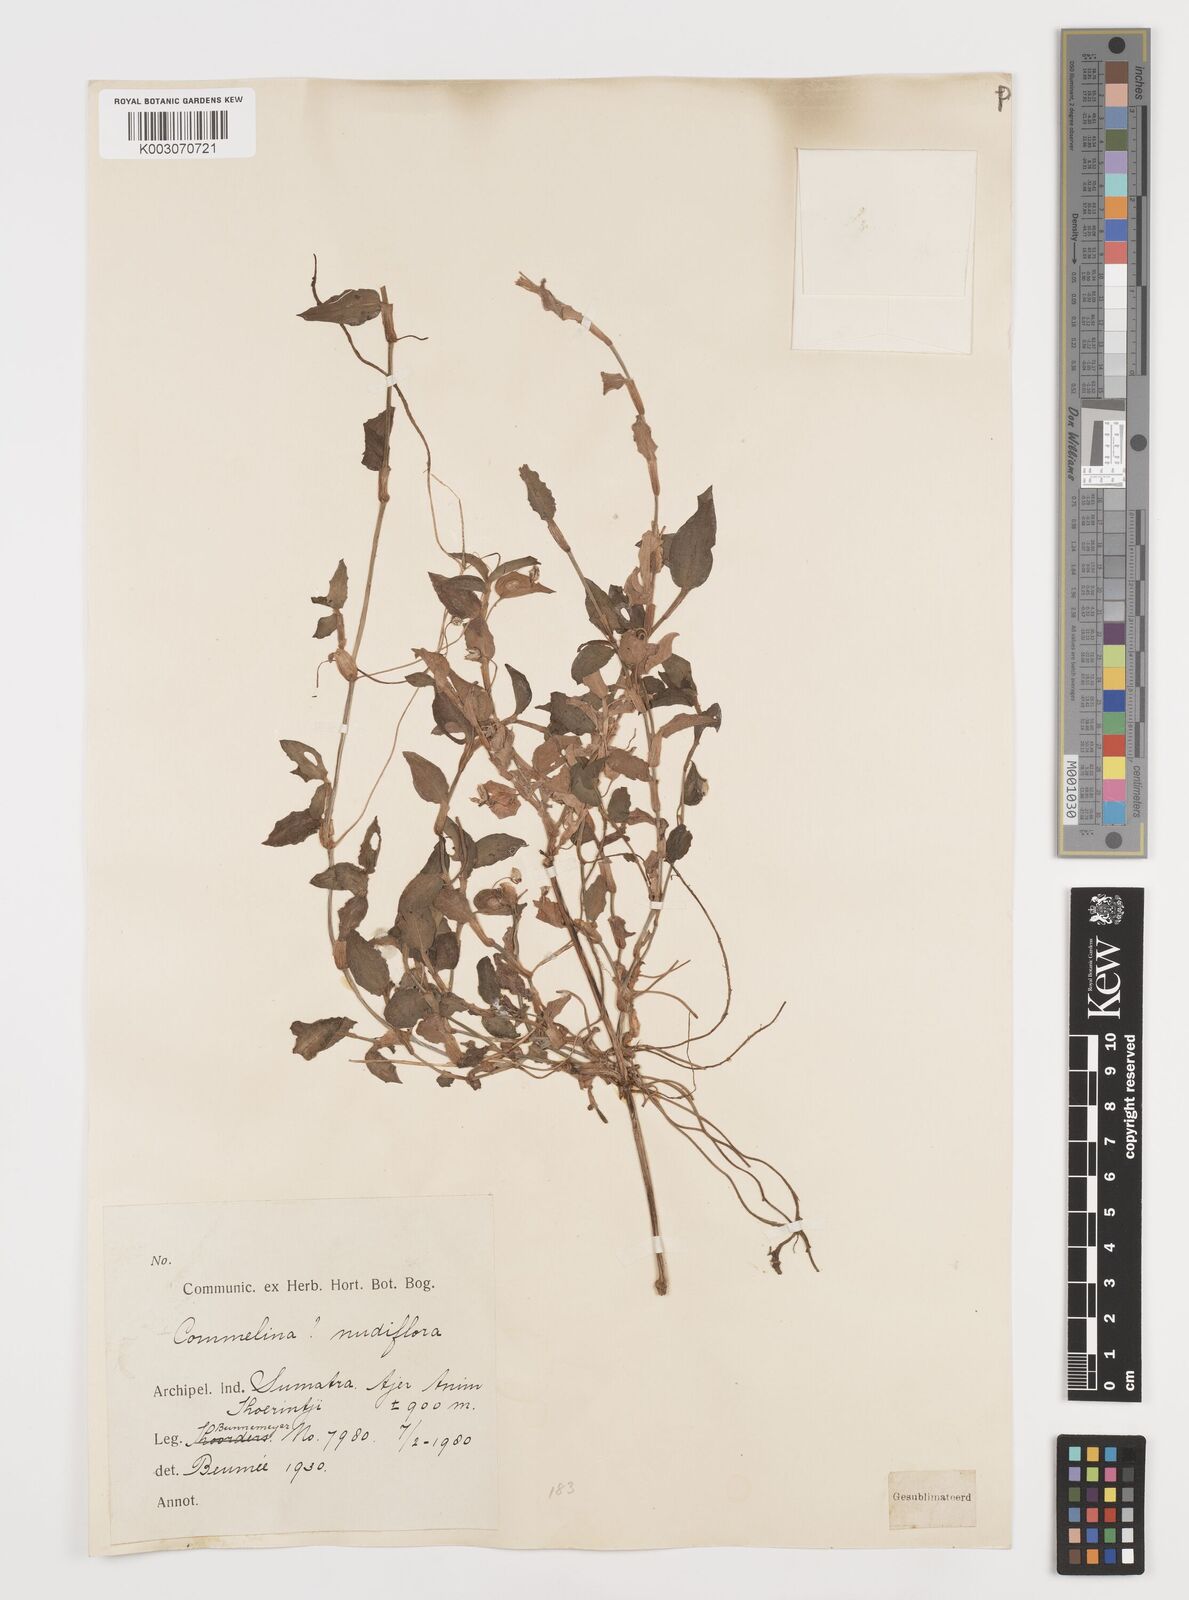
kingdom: Plantae
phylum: Tracheophyta
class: Liliopsida
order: Commelinales
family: Commelinaceae
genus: Commelina
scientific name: Commelina clavata
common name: Willow leaved dayflower
